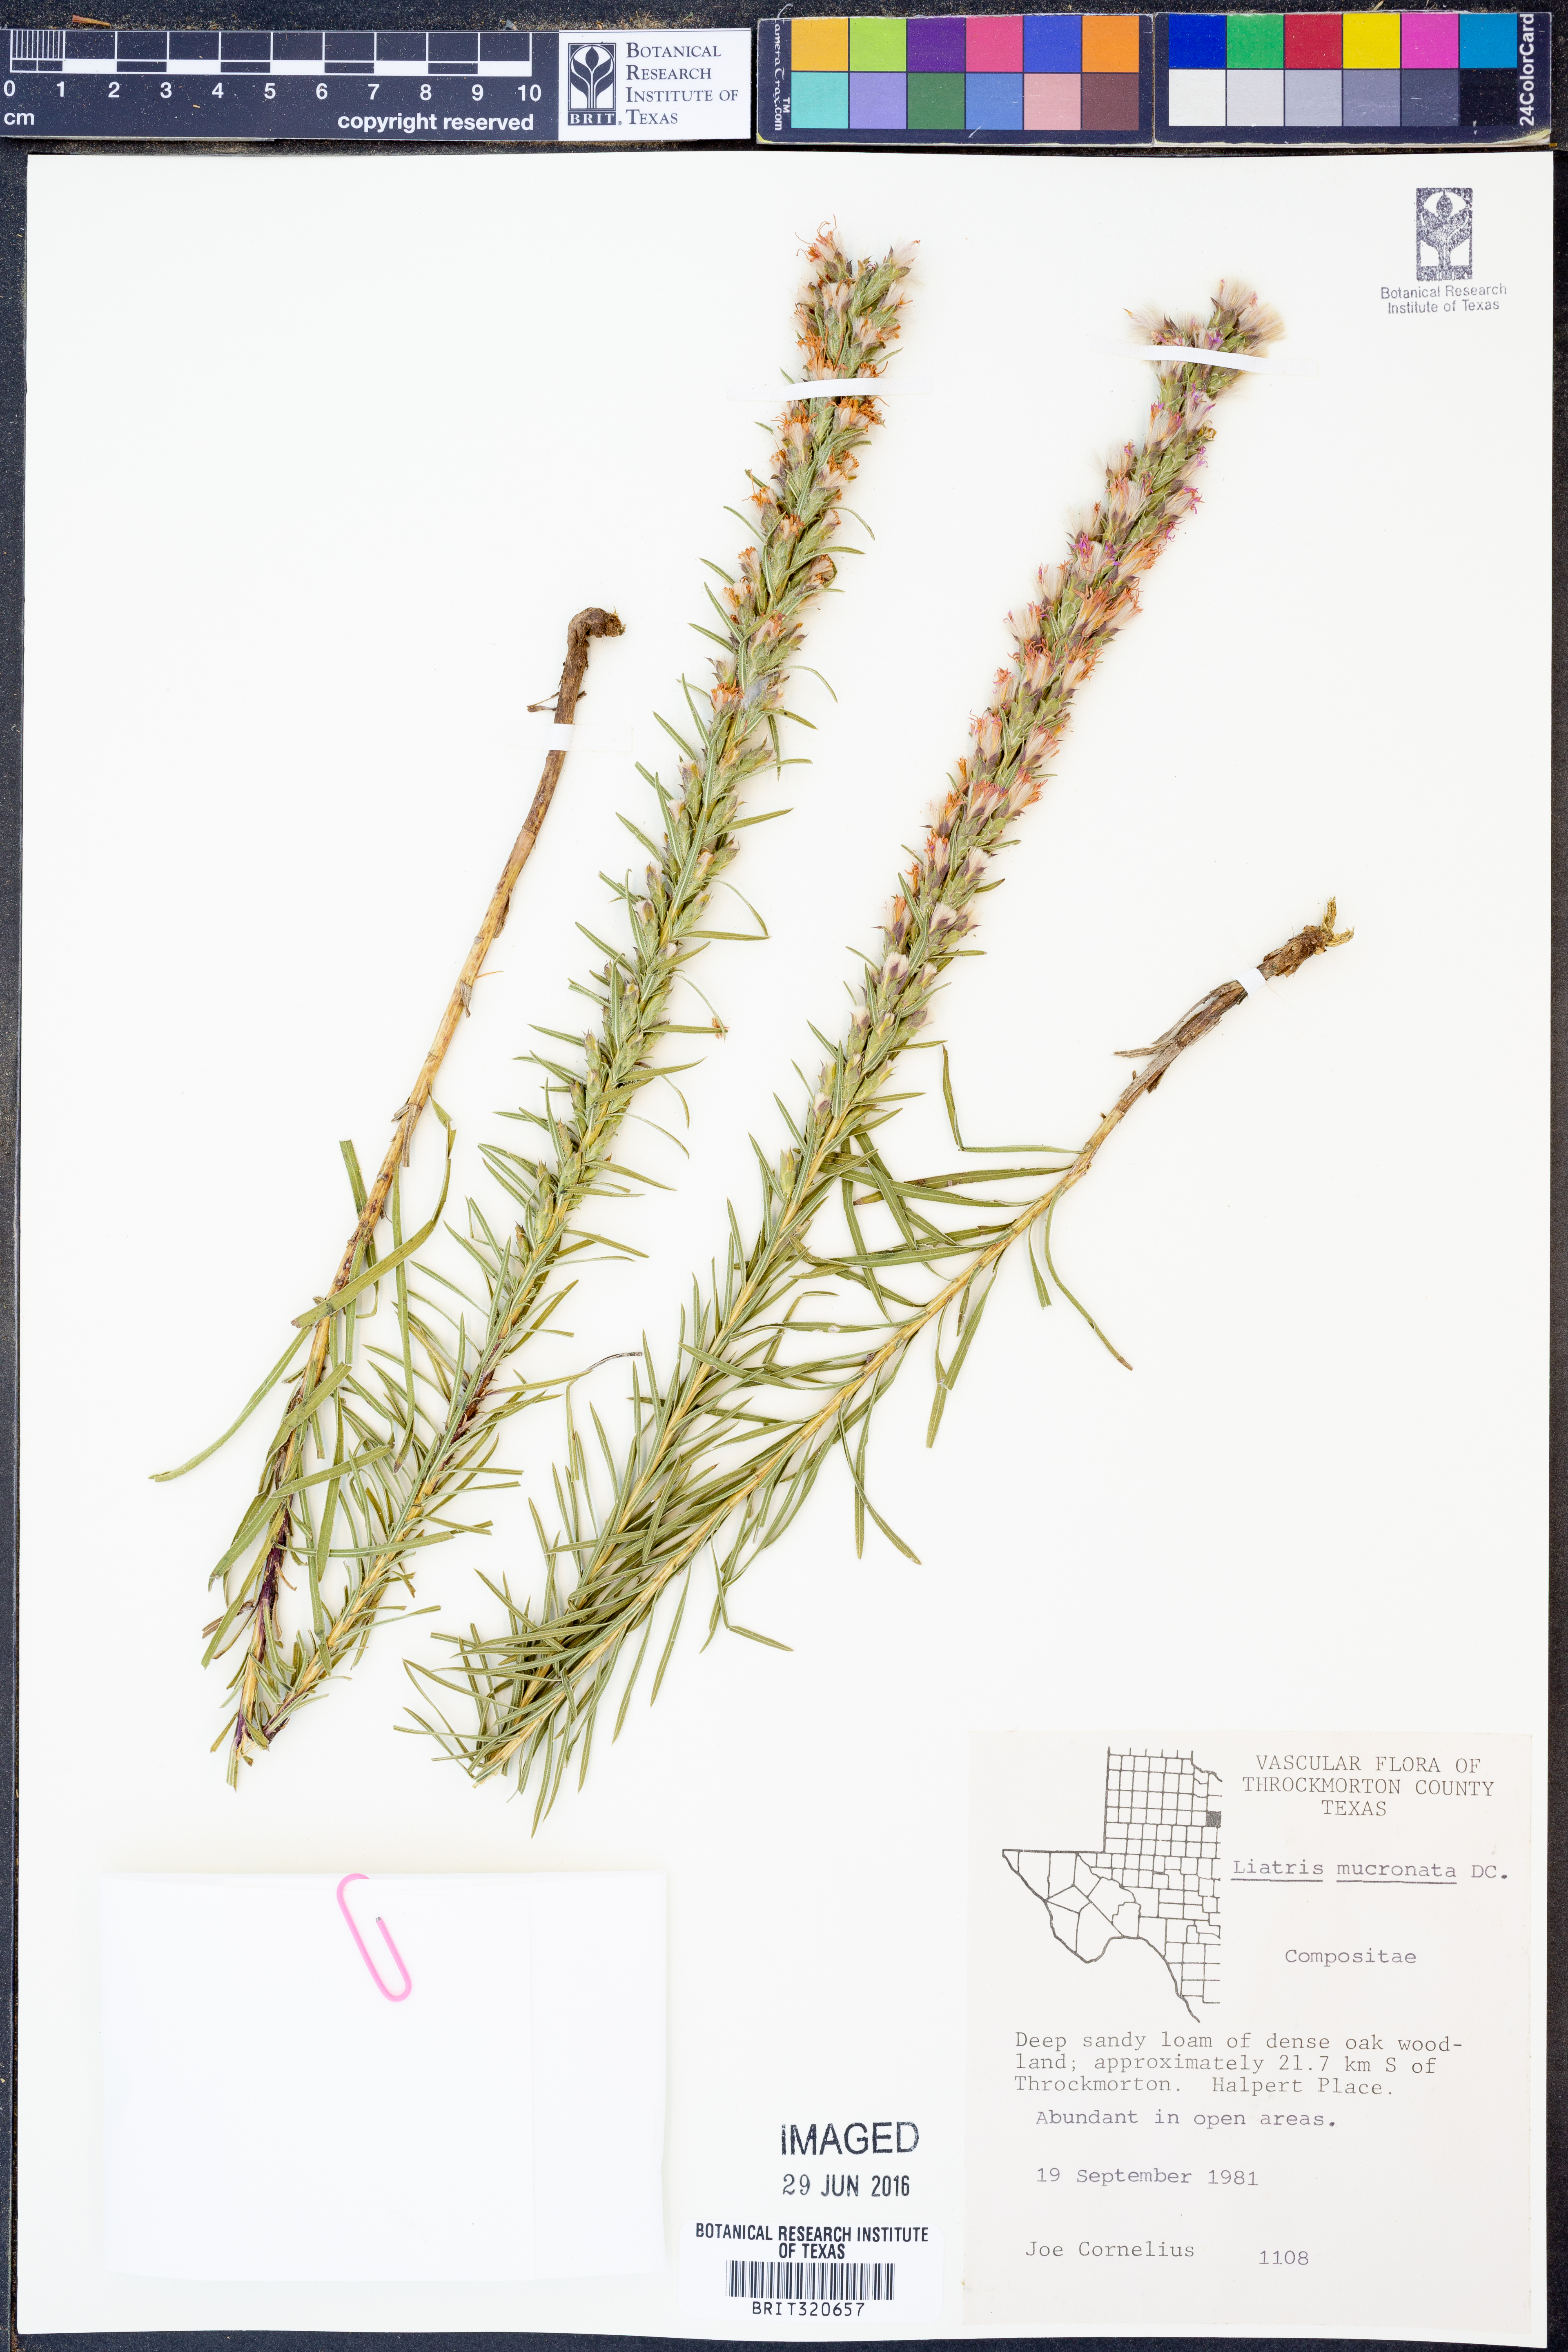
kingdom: Plantae
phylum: Tracheophyta
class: Magnoliopsida
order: Asterales
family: Asteraceae
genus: Liatris
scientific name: Liatris mucronata
